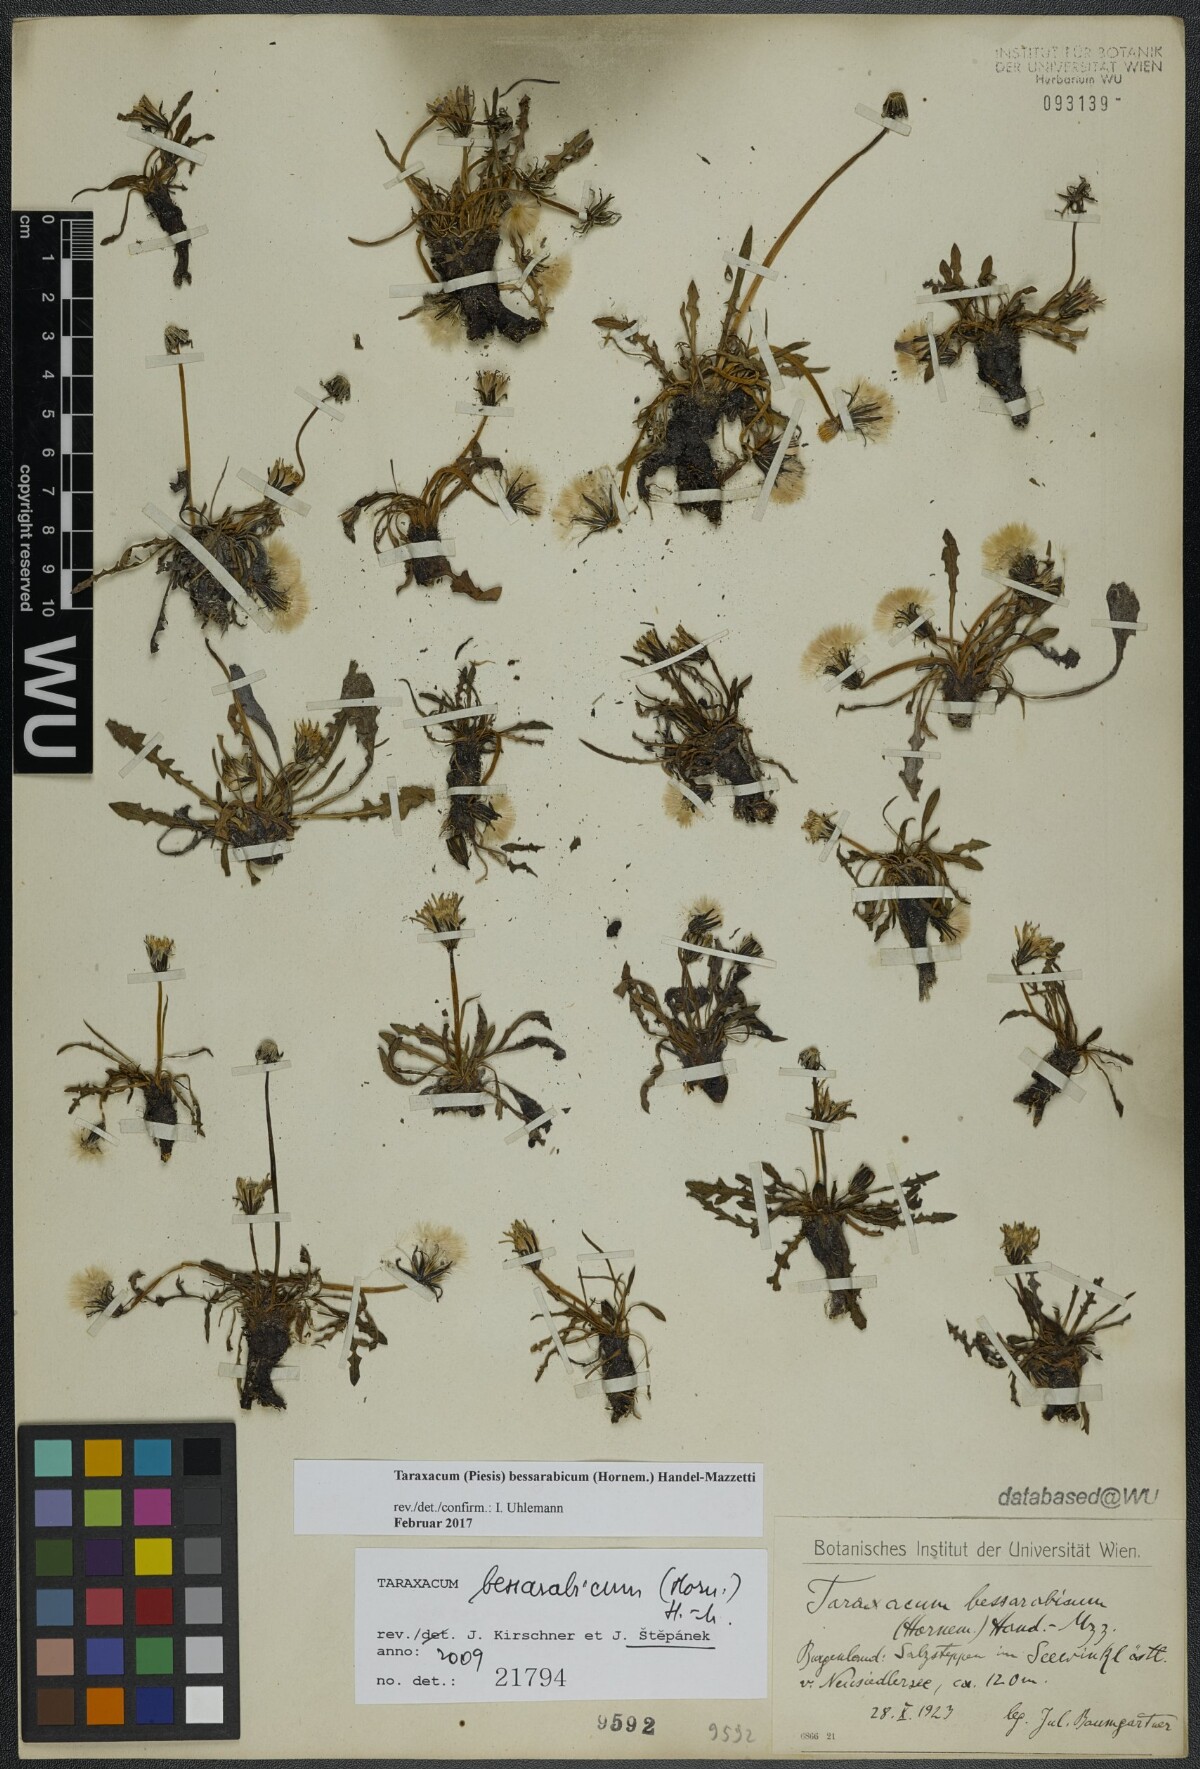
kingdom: Plantae
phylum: Tracheophyta
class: Magnoliopsida
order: Asterales
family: Asteraceae
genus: Taraxacum
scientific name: Taraxacum bessarabicum
